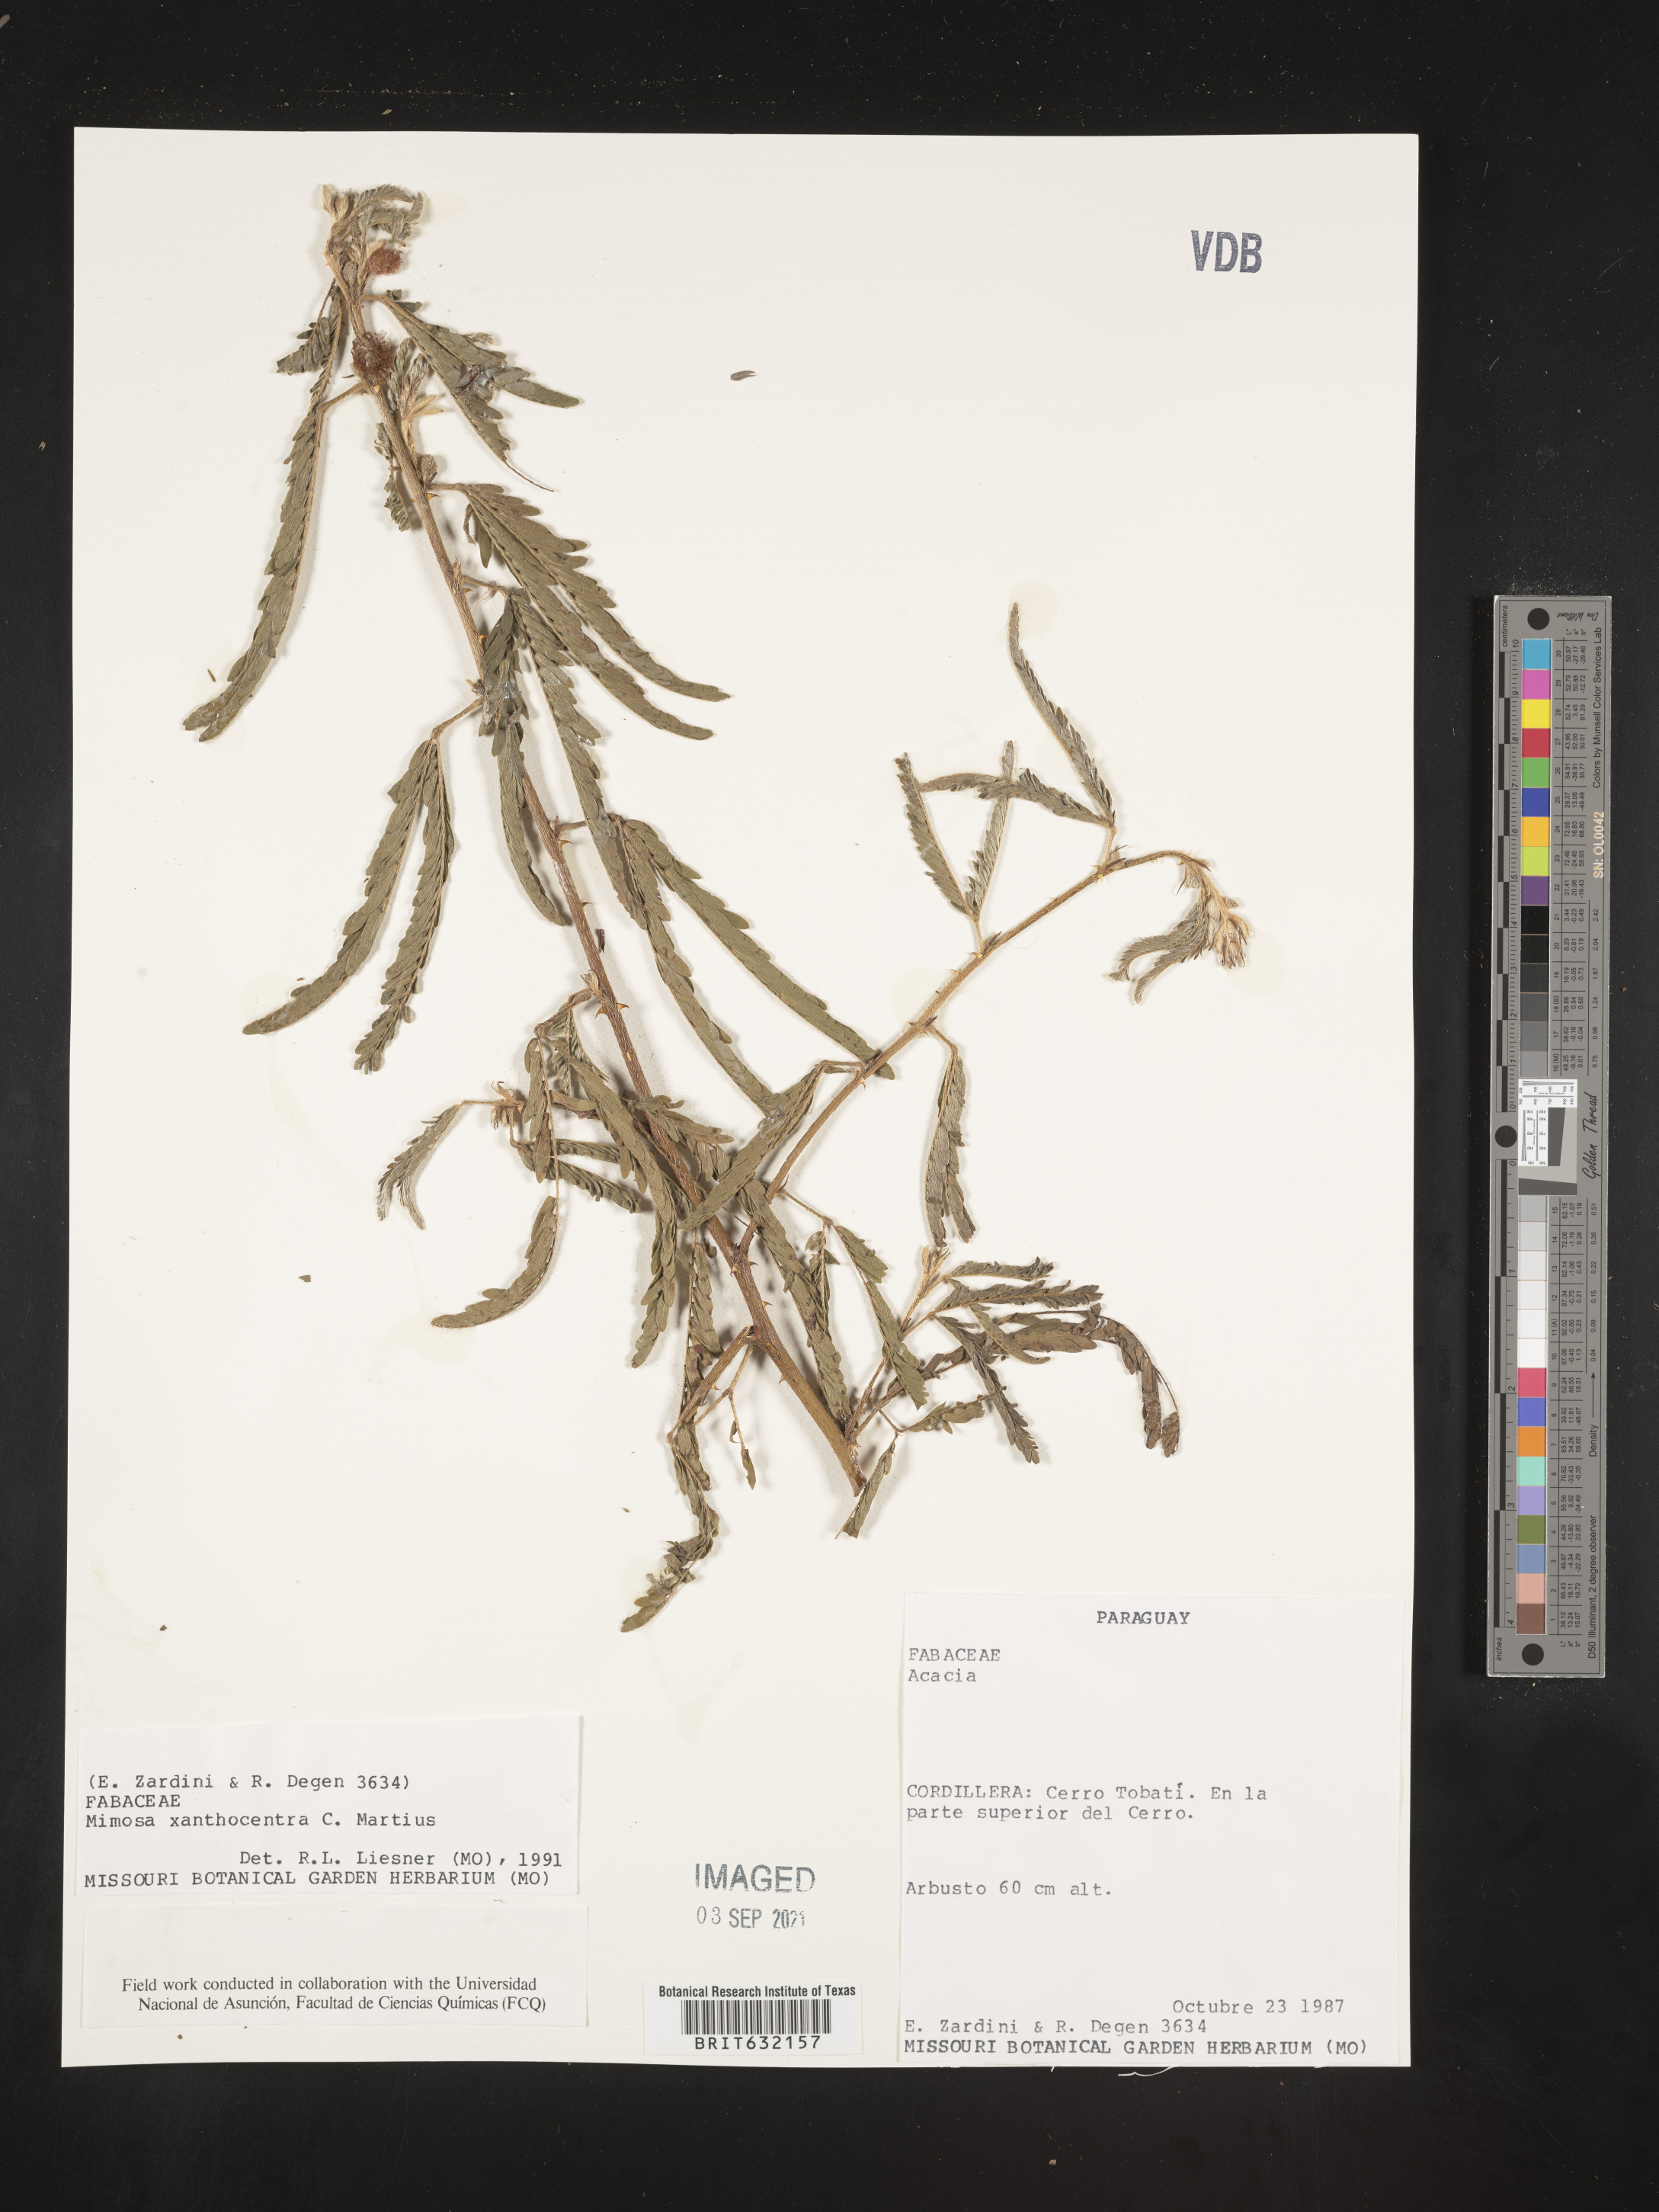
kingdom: Plantae
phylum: Tracheophyta
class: Magnoliopsida
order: Fabales
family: Fabaceae
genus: Mimosa
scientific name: Mimosa
